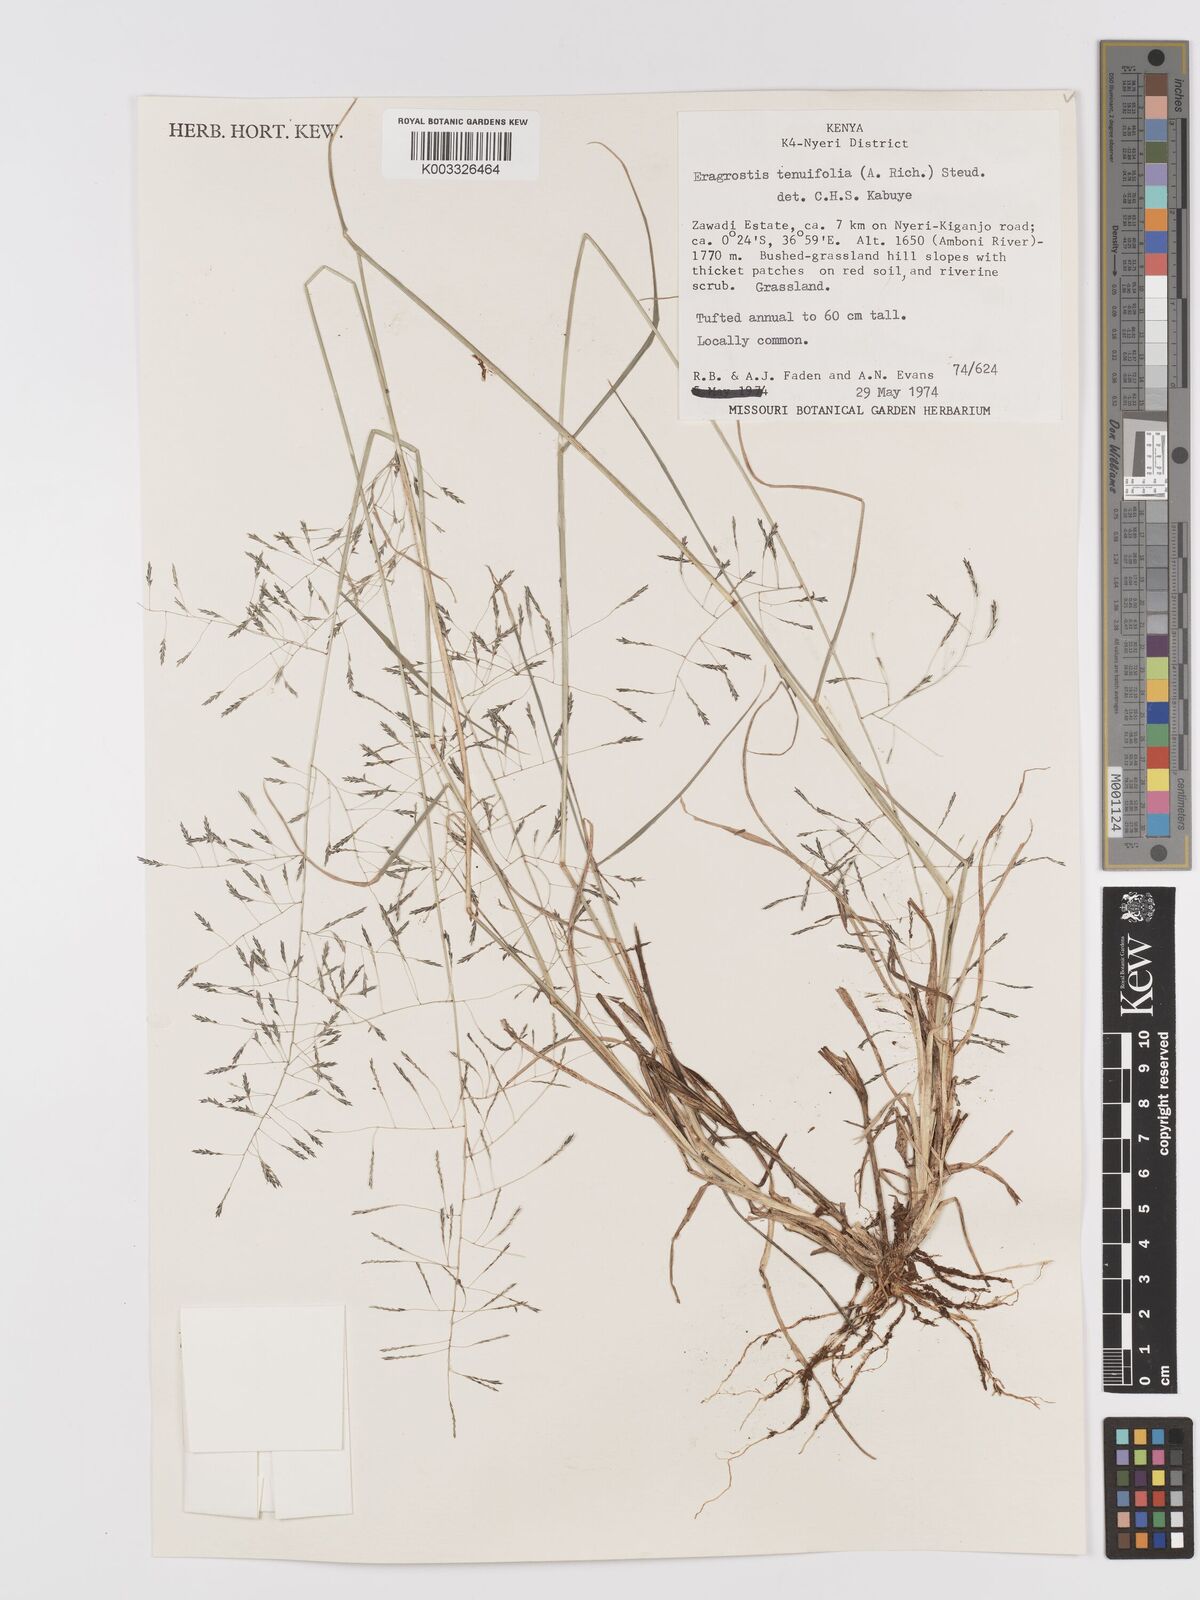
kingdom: Plantae
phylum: Tracheophyta
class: Liliopsida
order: Poales
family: Poaceae
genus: Eragrostis
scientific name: Eragrostis tenuifolia
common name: Elastic grass
